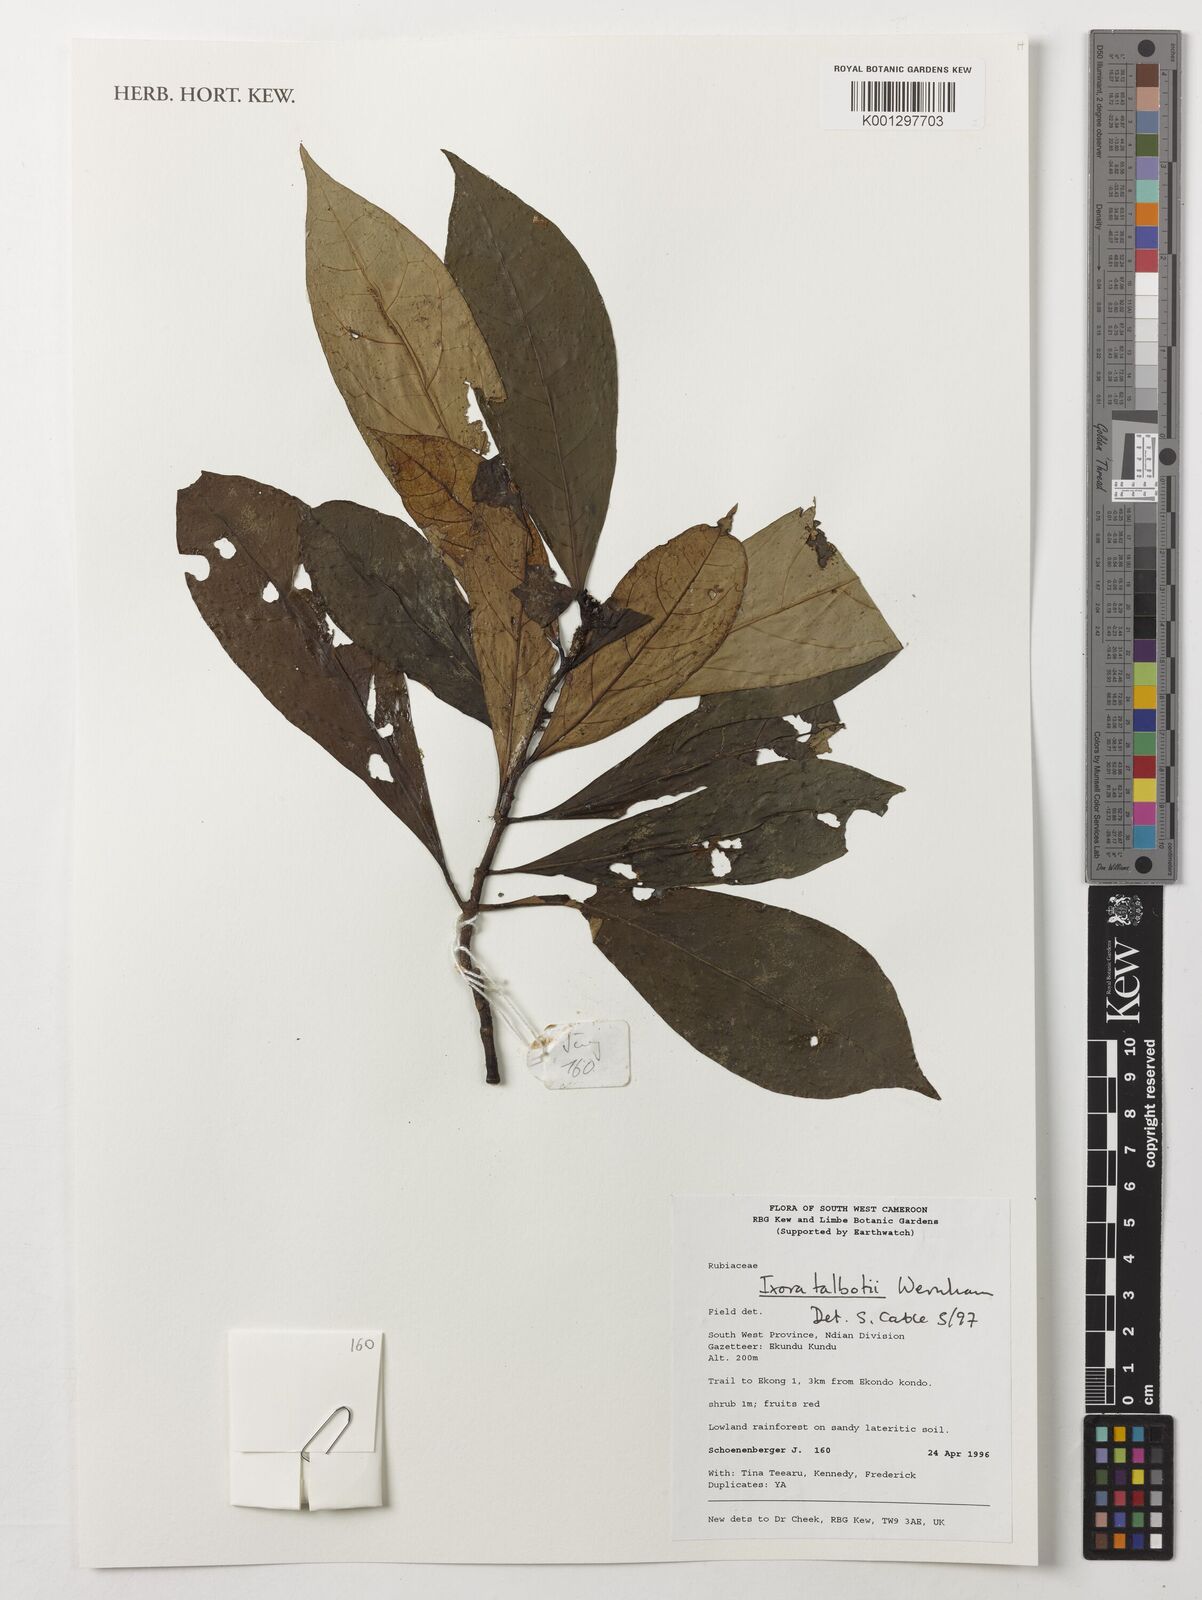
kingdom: Plantae
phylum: Tracheophyta
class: Magnoliopsida
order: Gentianales
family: Rubiaceae
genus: Ixora
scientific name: Ixora guineensis
